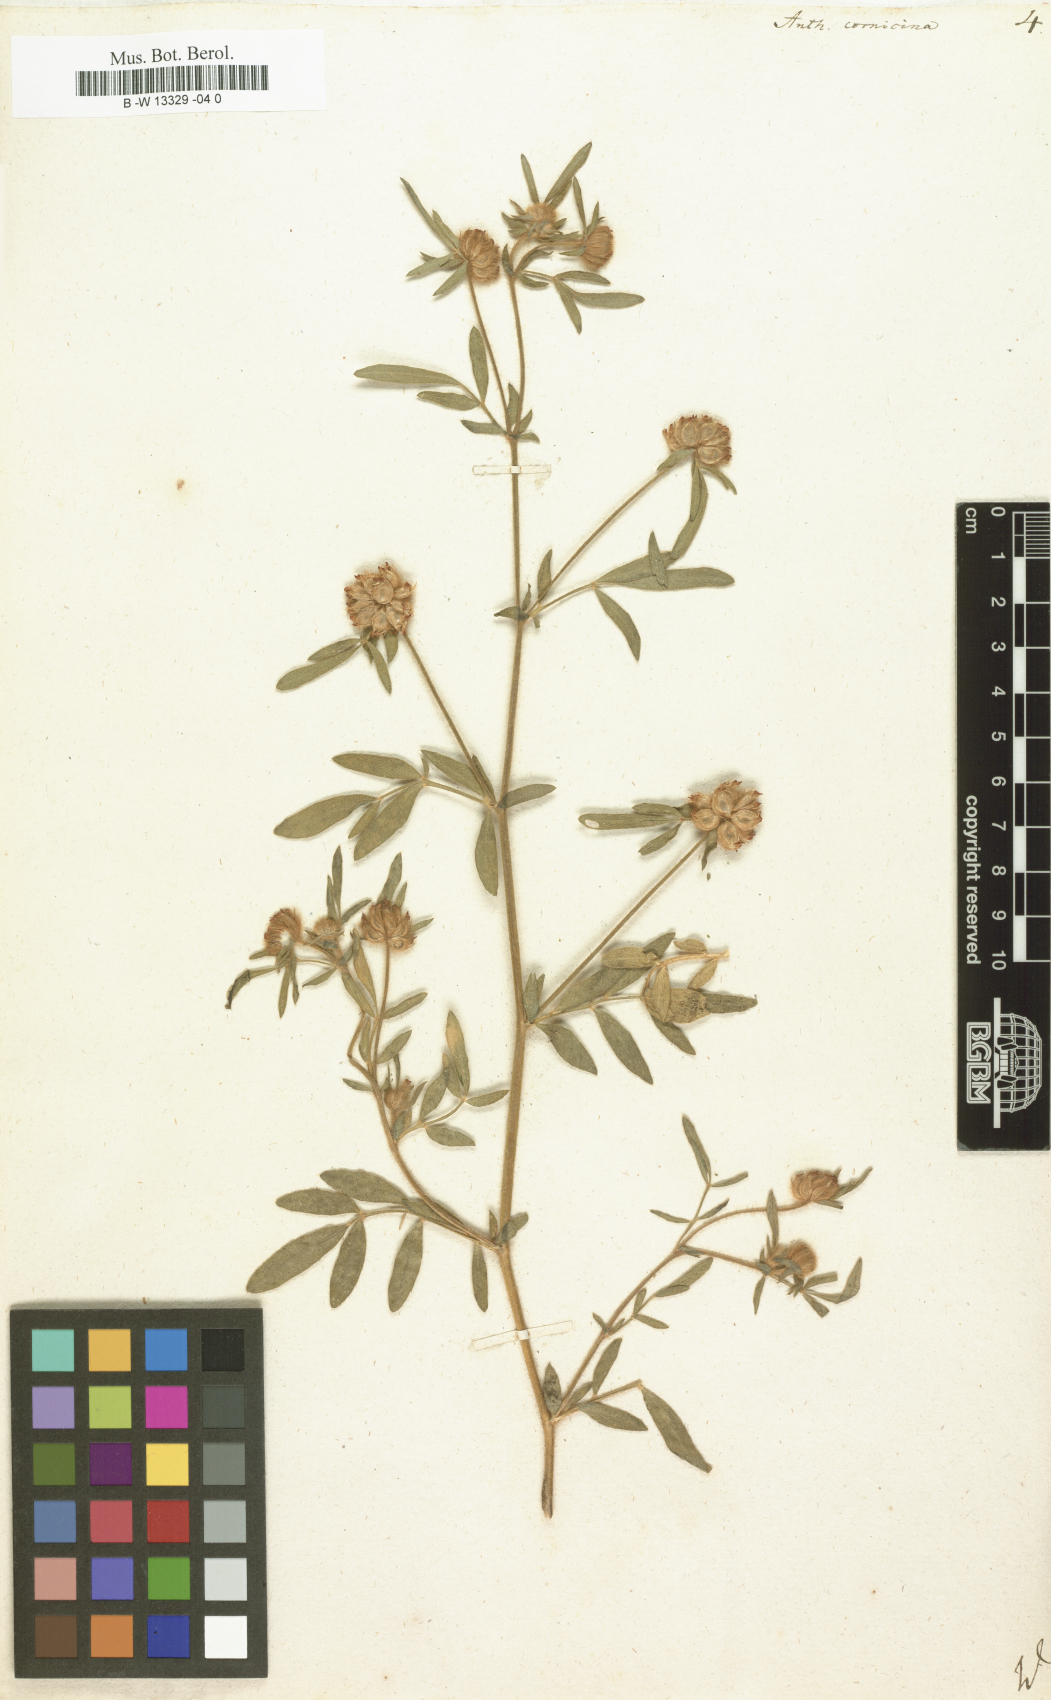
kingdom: Plantae
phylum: Tracheophyta
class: Magnoliopsida
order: Fabales
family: Fabaceae
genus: Anthyllis
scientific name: Anthyllis cornicina
